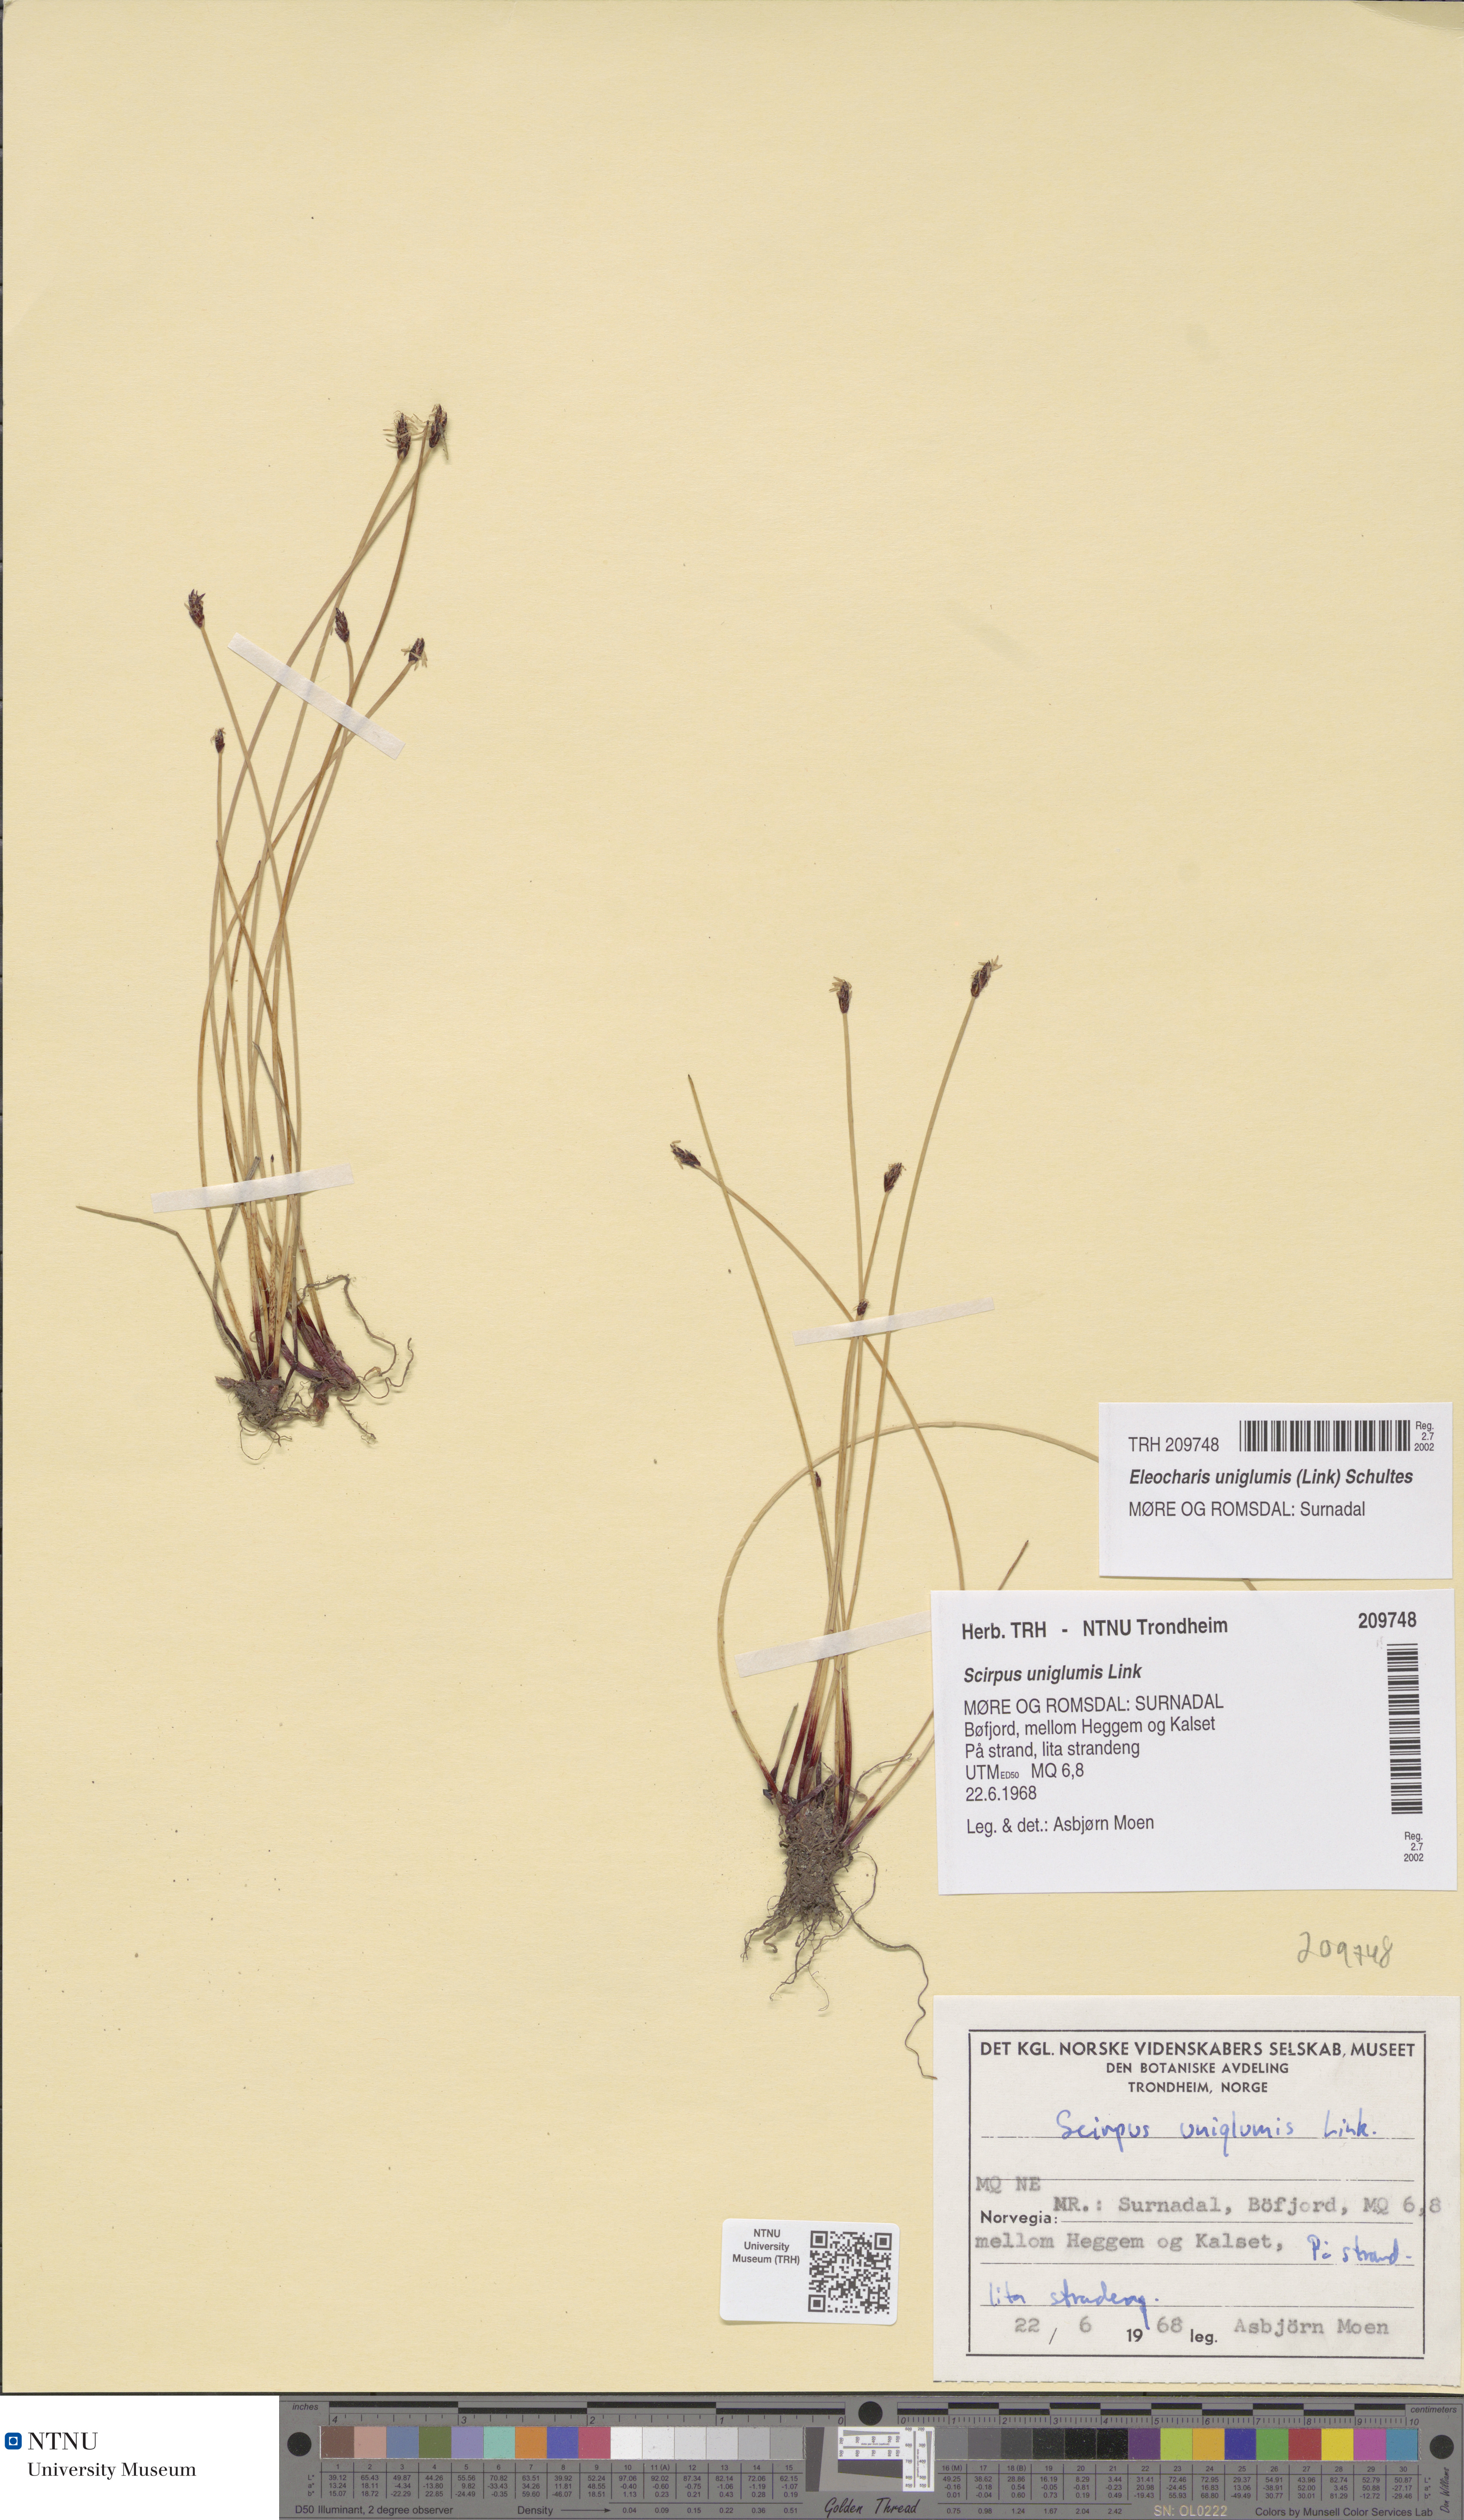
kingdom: Plantae
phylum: Tracheophyta
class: Liliopsida
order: Poales
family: Cyperaceae
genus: Eleocharis
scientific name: Eleocharis uniglumis
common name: Slender spike-rush
